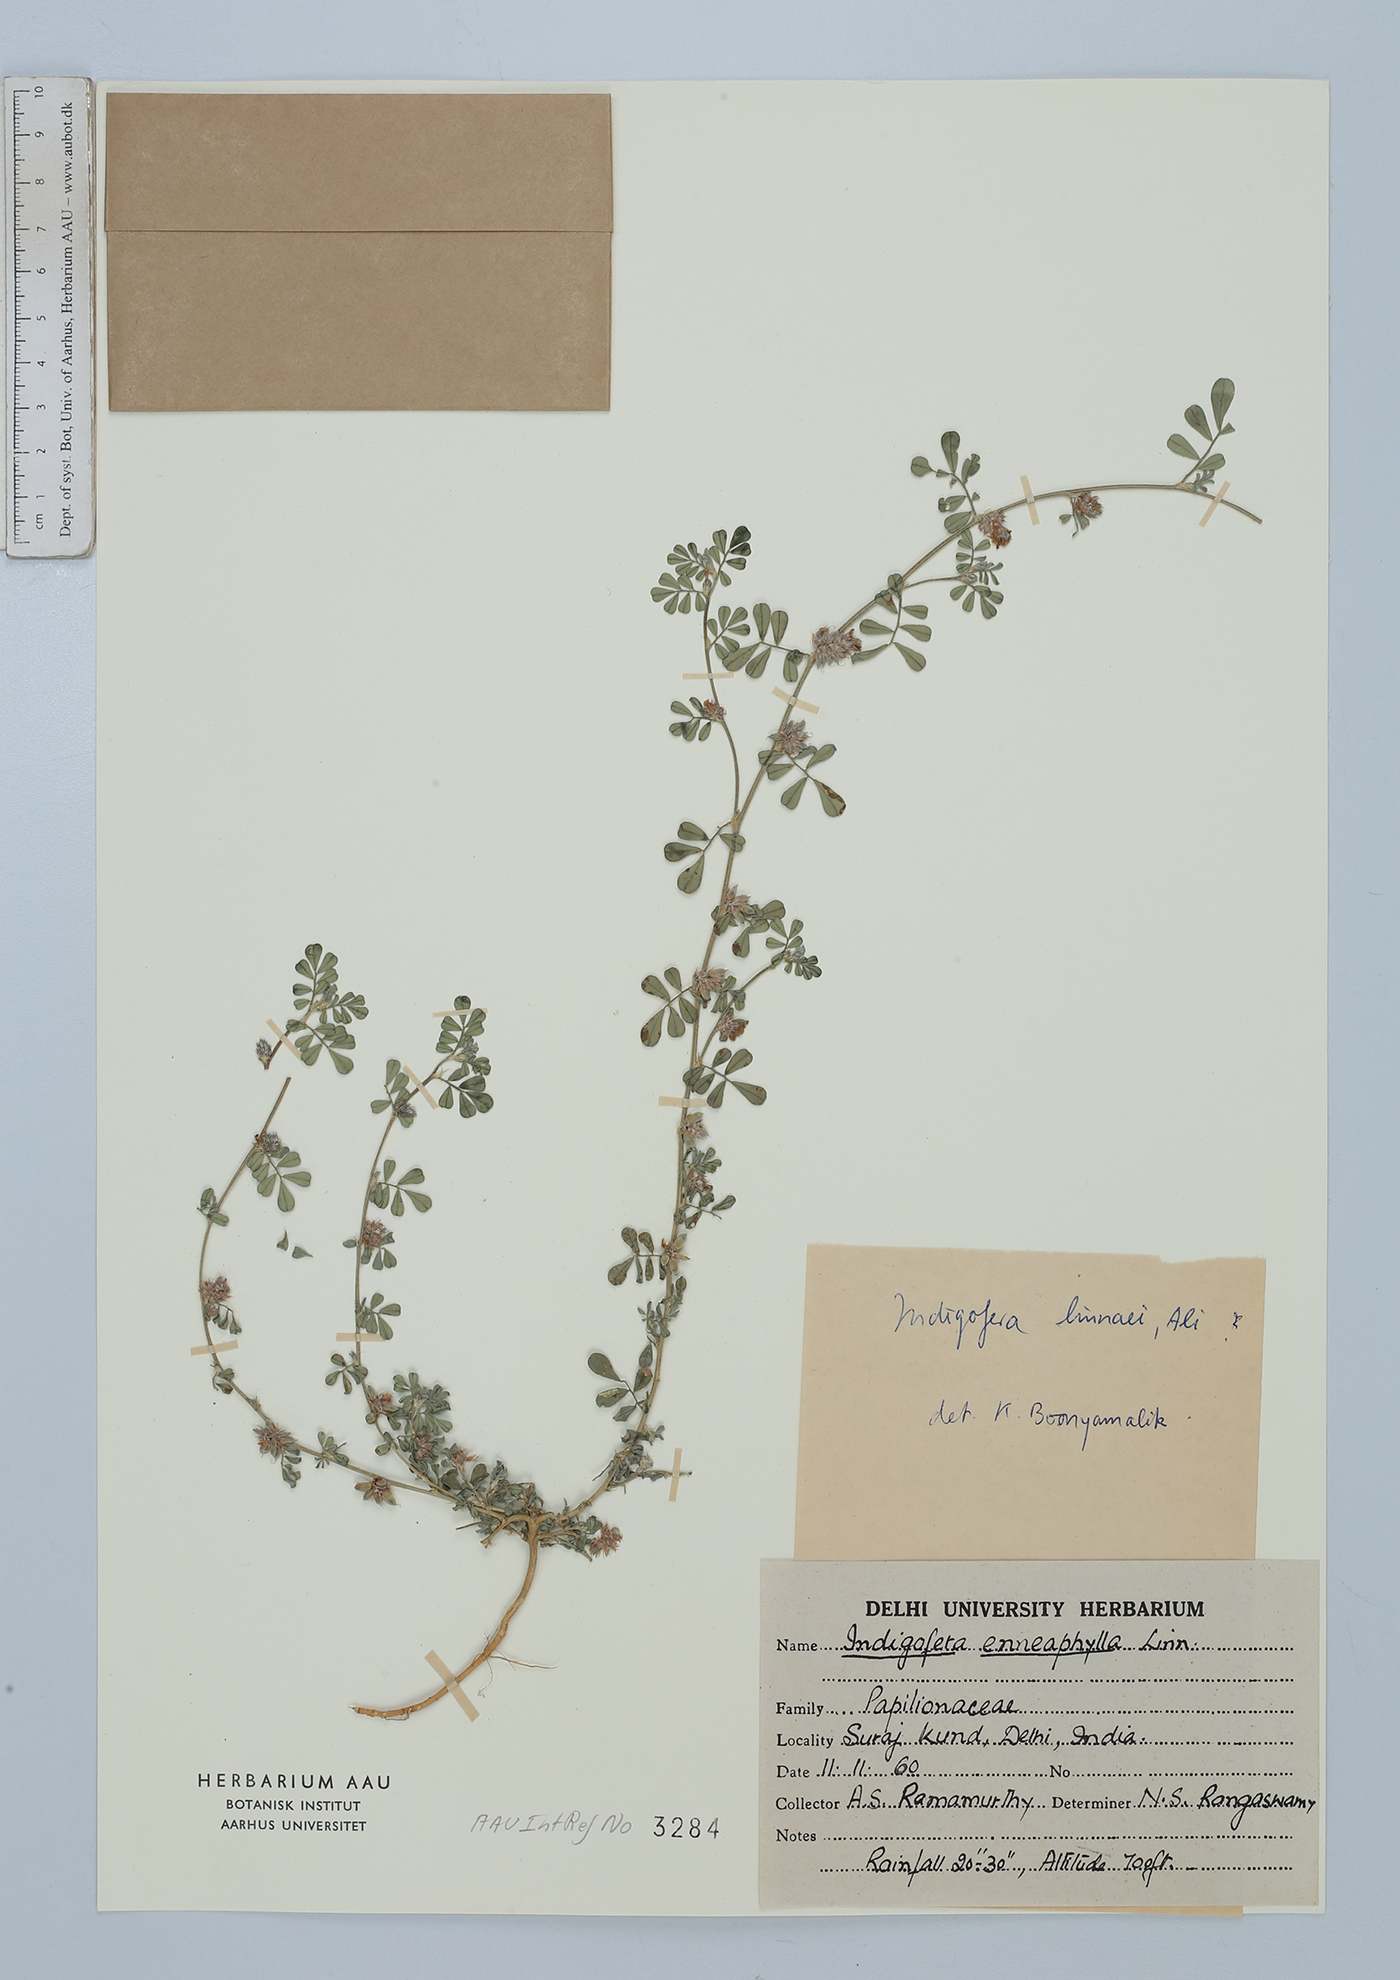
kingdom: Plantae
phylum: Tracheophyta
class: Magnoliopsida
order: Fabales
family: Fabaceae
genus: Indigofera
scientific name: Indigofera linnaei
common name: Nine-leaf indigo
